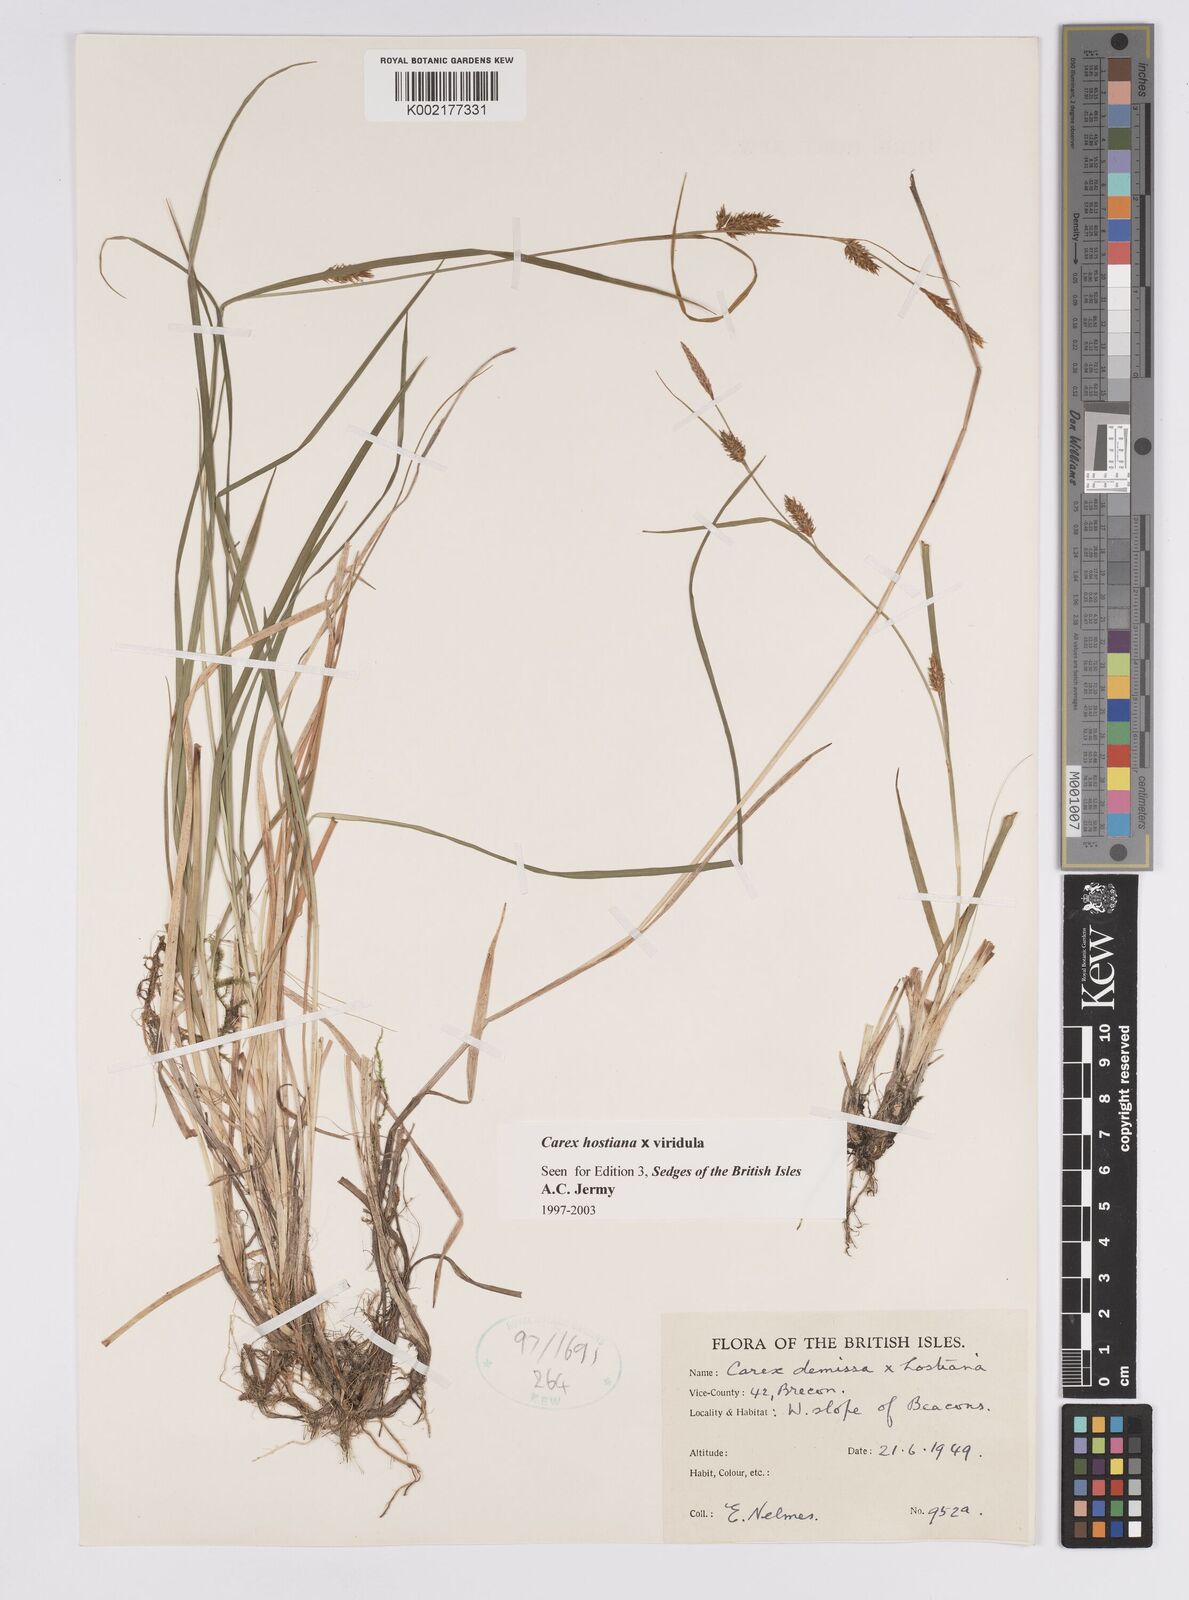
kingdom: Plantae
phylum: Tracheophyta
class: Liliopsida
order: Poales
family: Cyperaceae
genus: Carex
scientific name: Carex hostiana
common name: Tawny sedge
